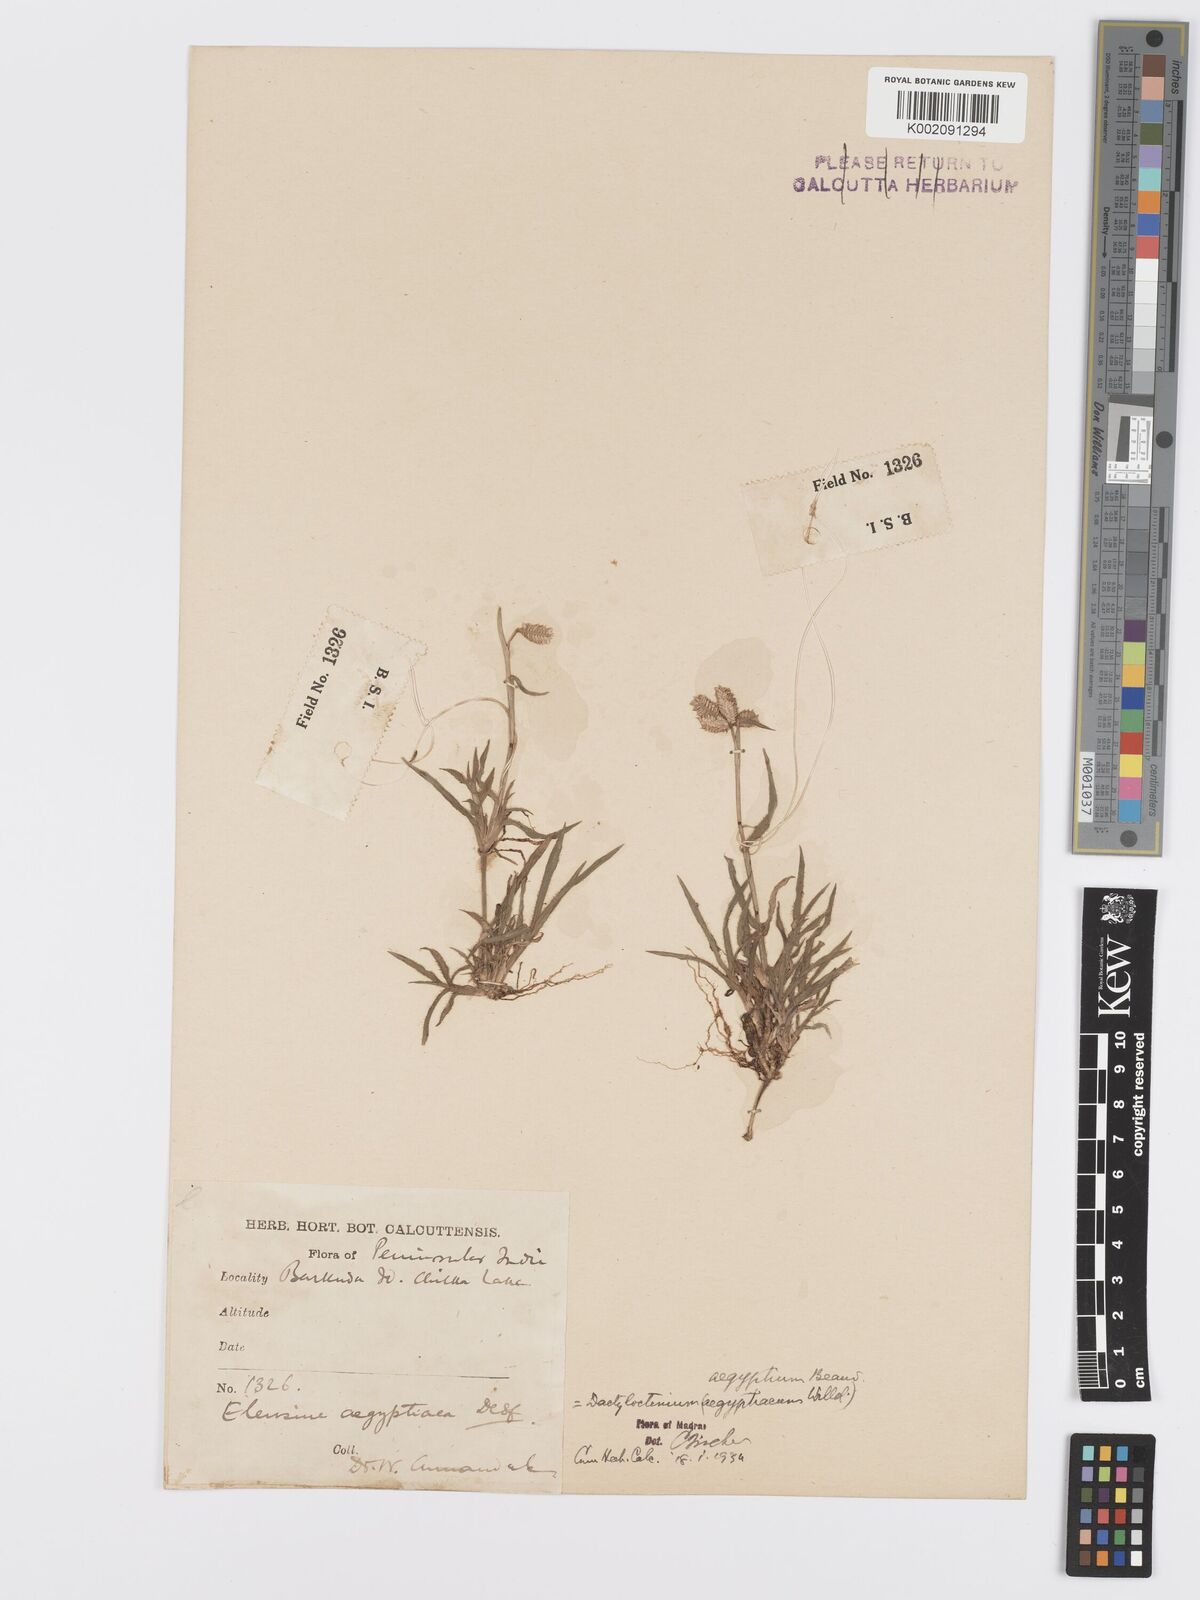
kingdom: Plantae
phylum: Tracheophyta
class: Liliopsida
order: Poales
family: Poaceae
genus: Dactyloctenium
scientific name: Dactyloctenium aegyptium
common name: Egyptian grass
